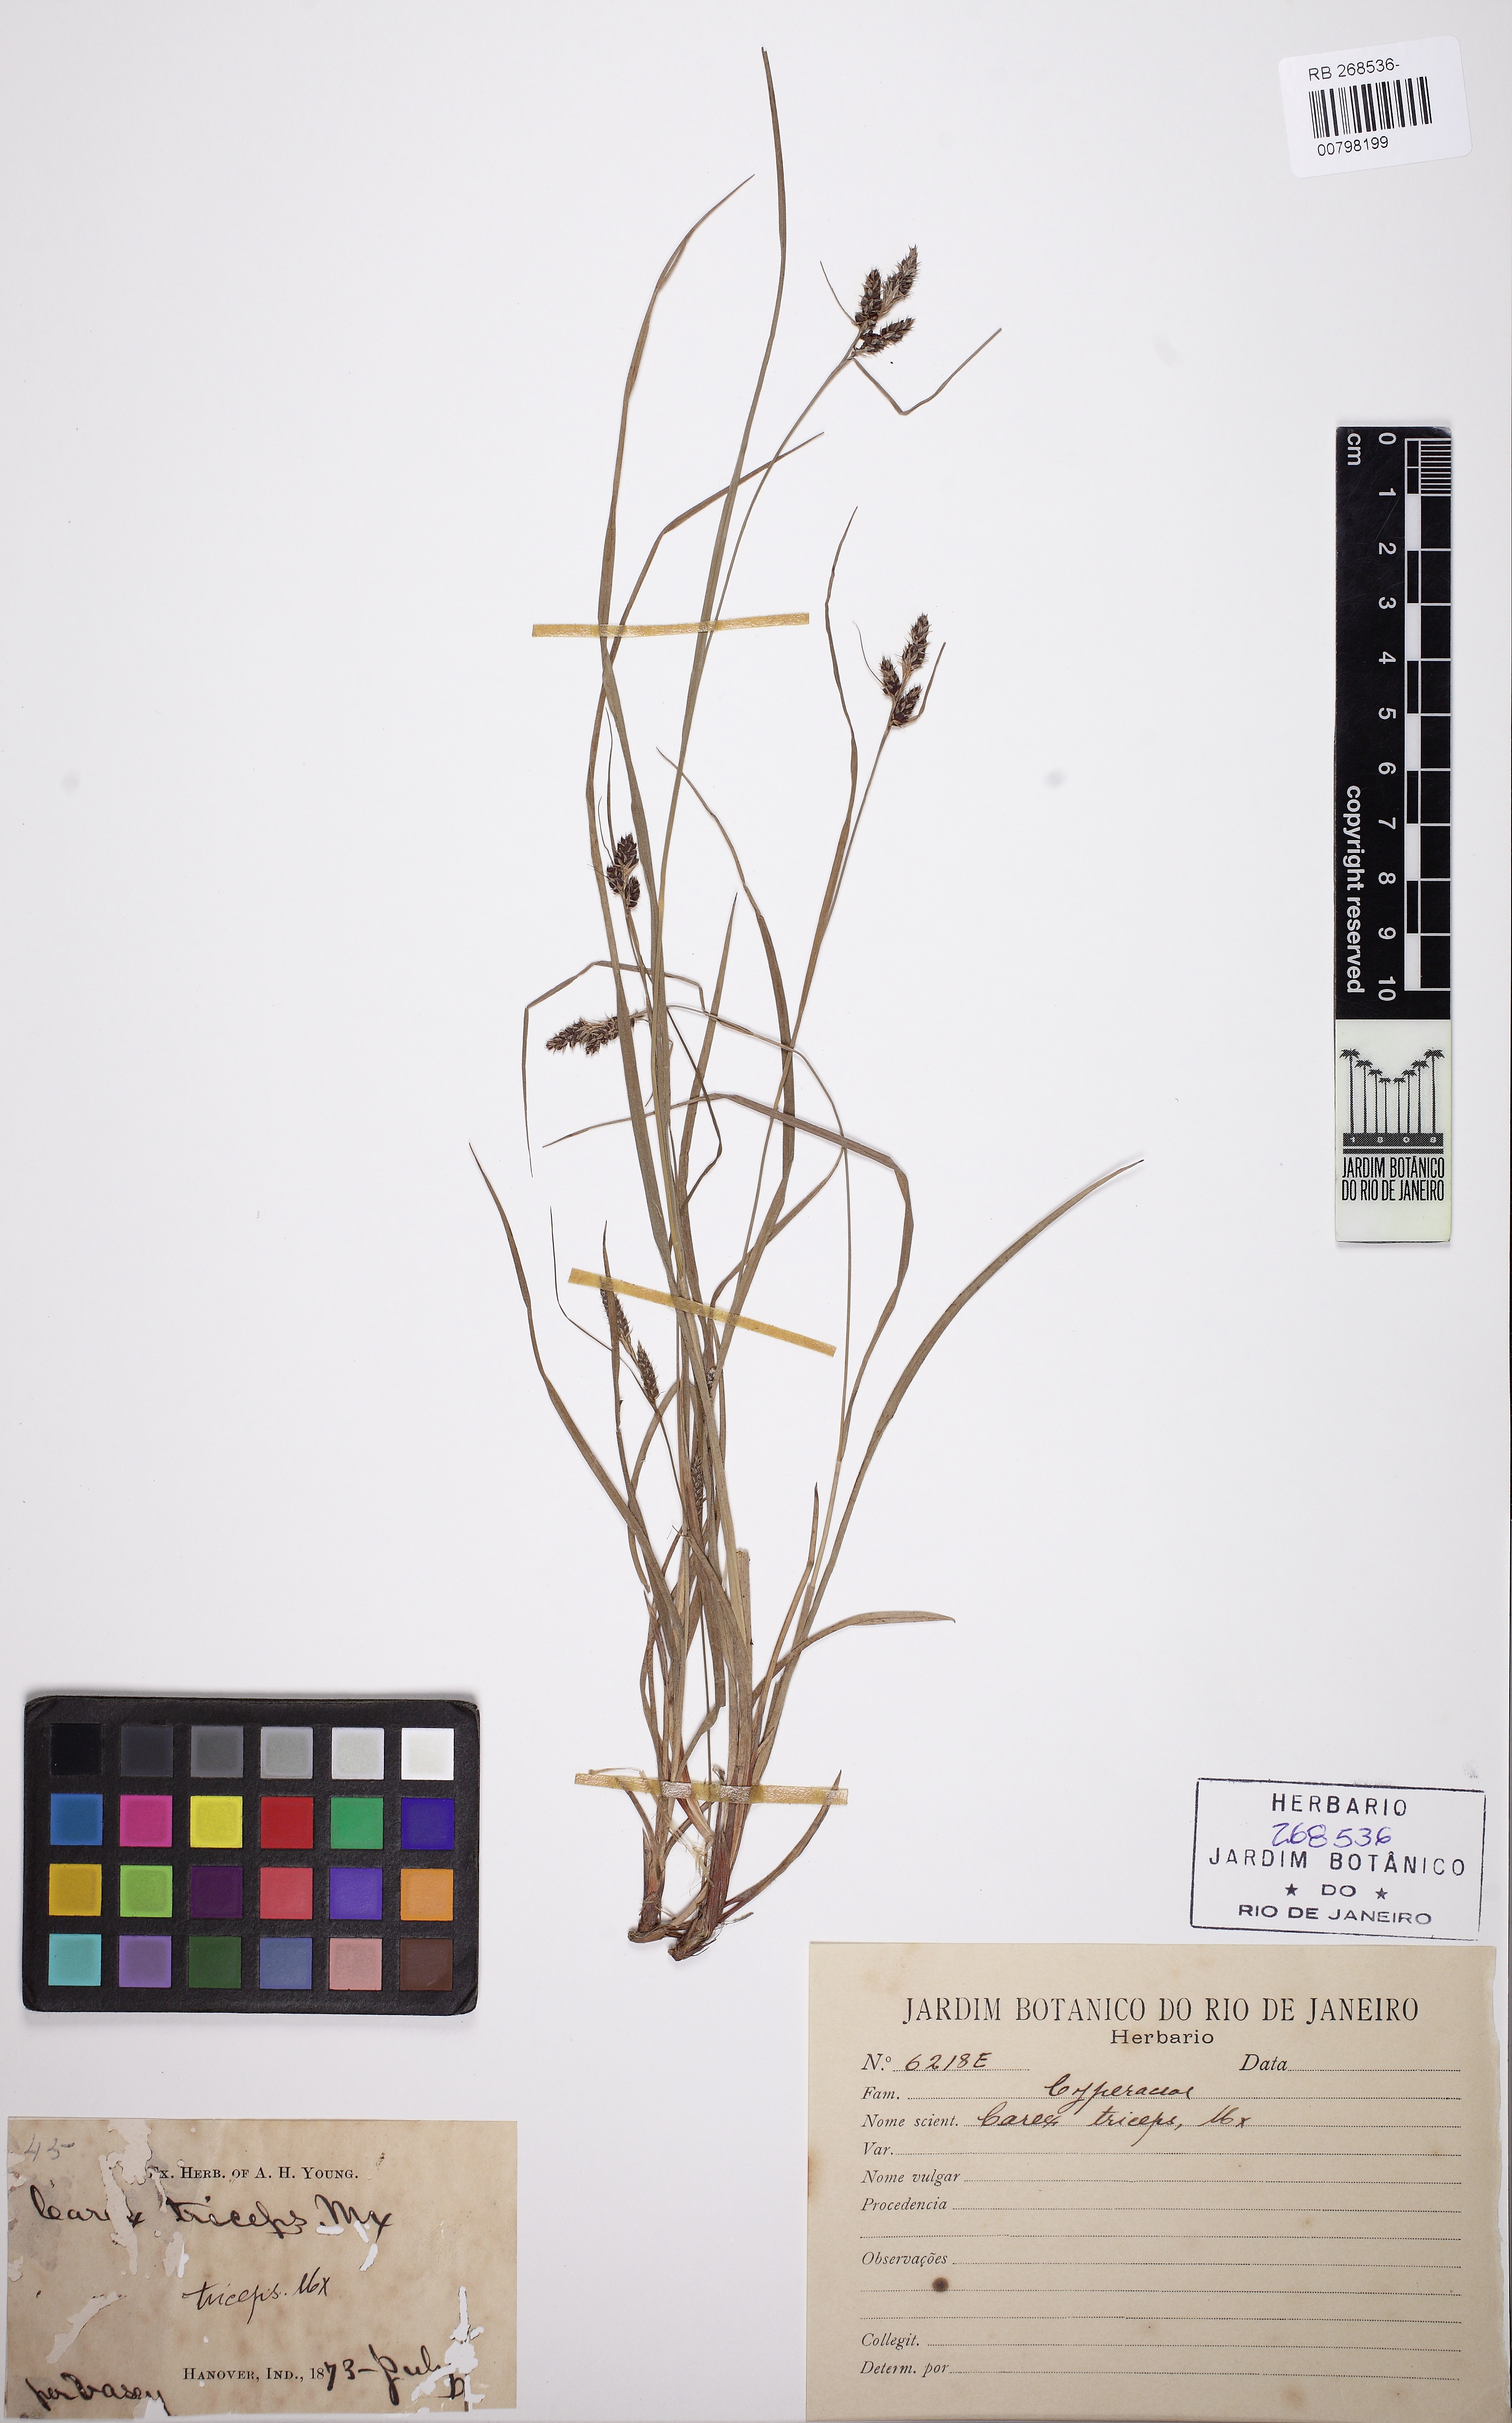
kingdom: Plantae
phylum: Tracheophyta
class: Liliopsida
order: Poales
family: Cyperaceae
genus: Carex
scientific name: Carex hirsutella
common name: Fuzzy wuzzy sedge
